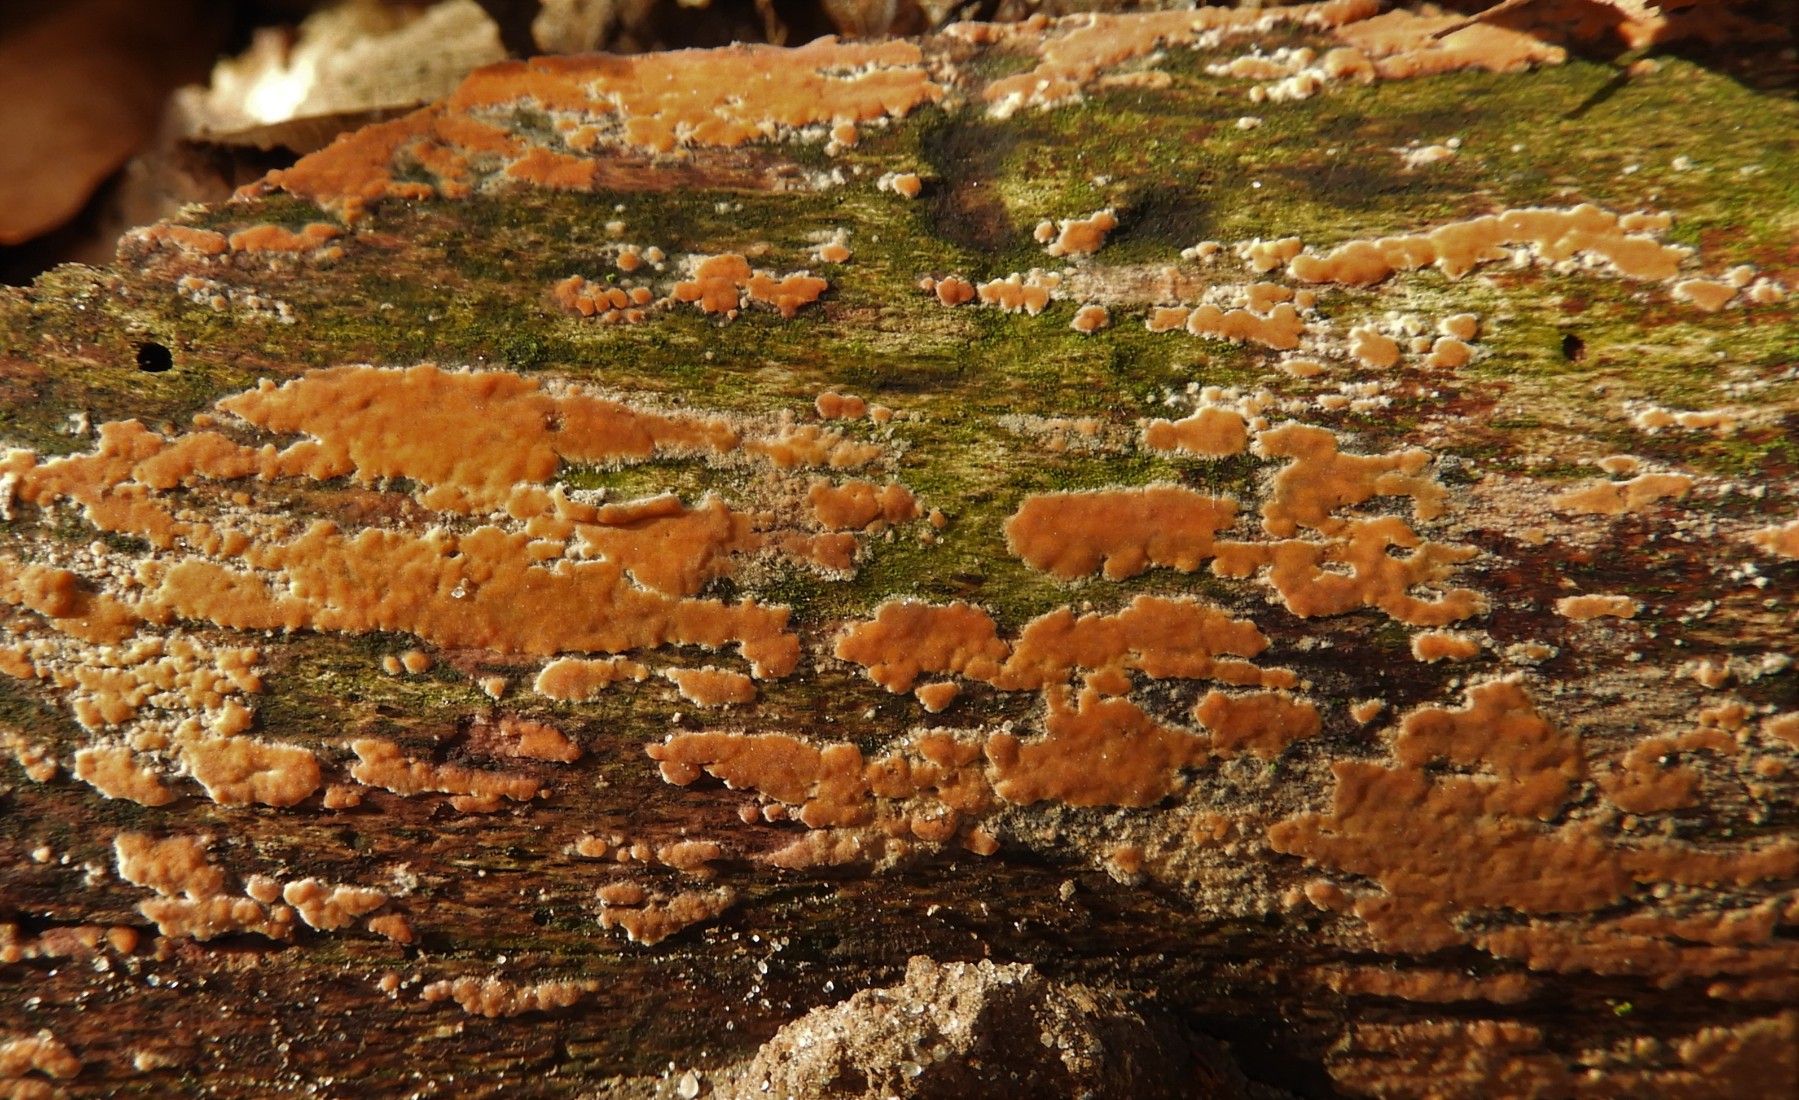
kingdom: Fungi
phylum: Basidiomycota
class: Agaricomycetes
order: Russulales
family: Peniophoraceae
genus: Peniophora
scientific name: Peniophora incarnata
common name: laksefarvet voksskind
